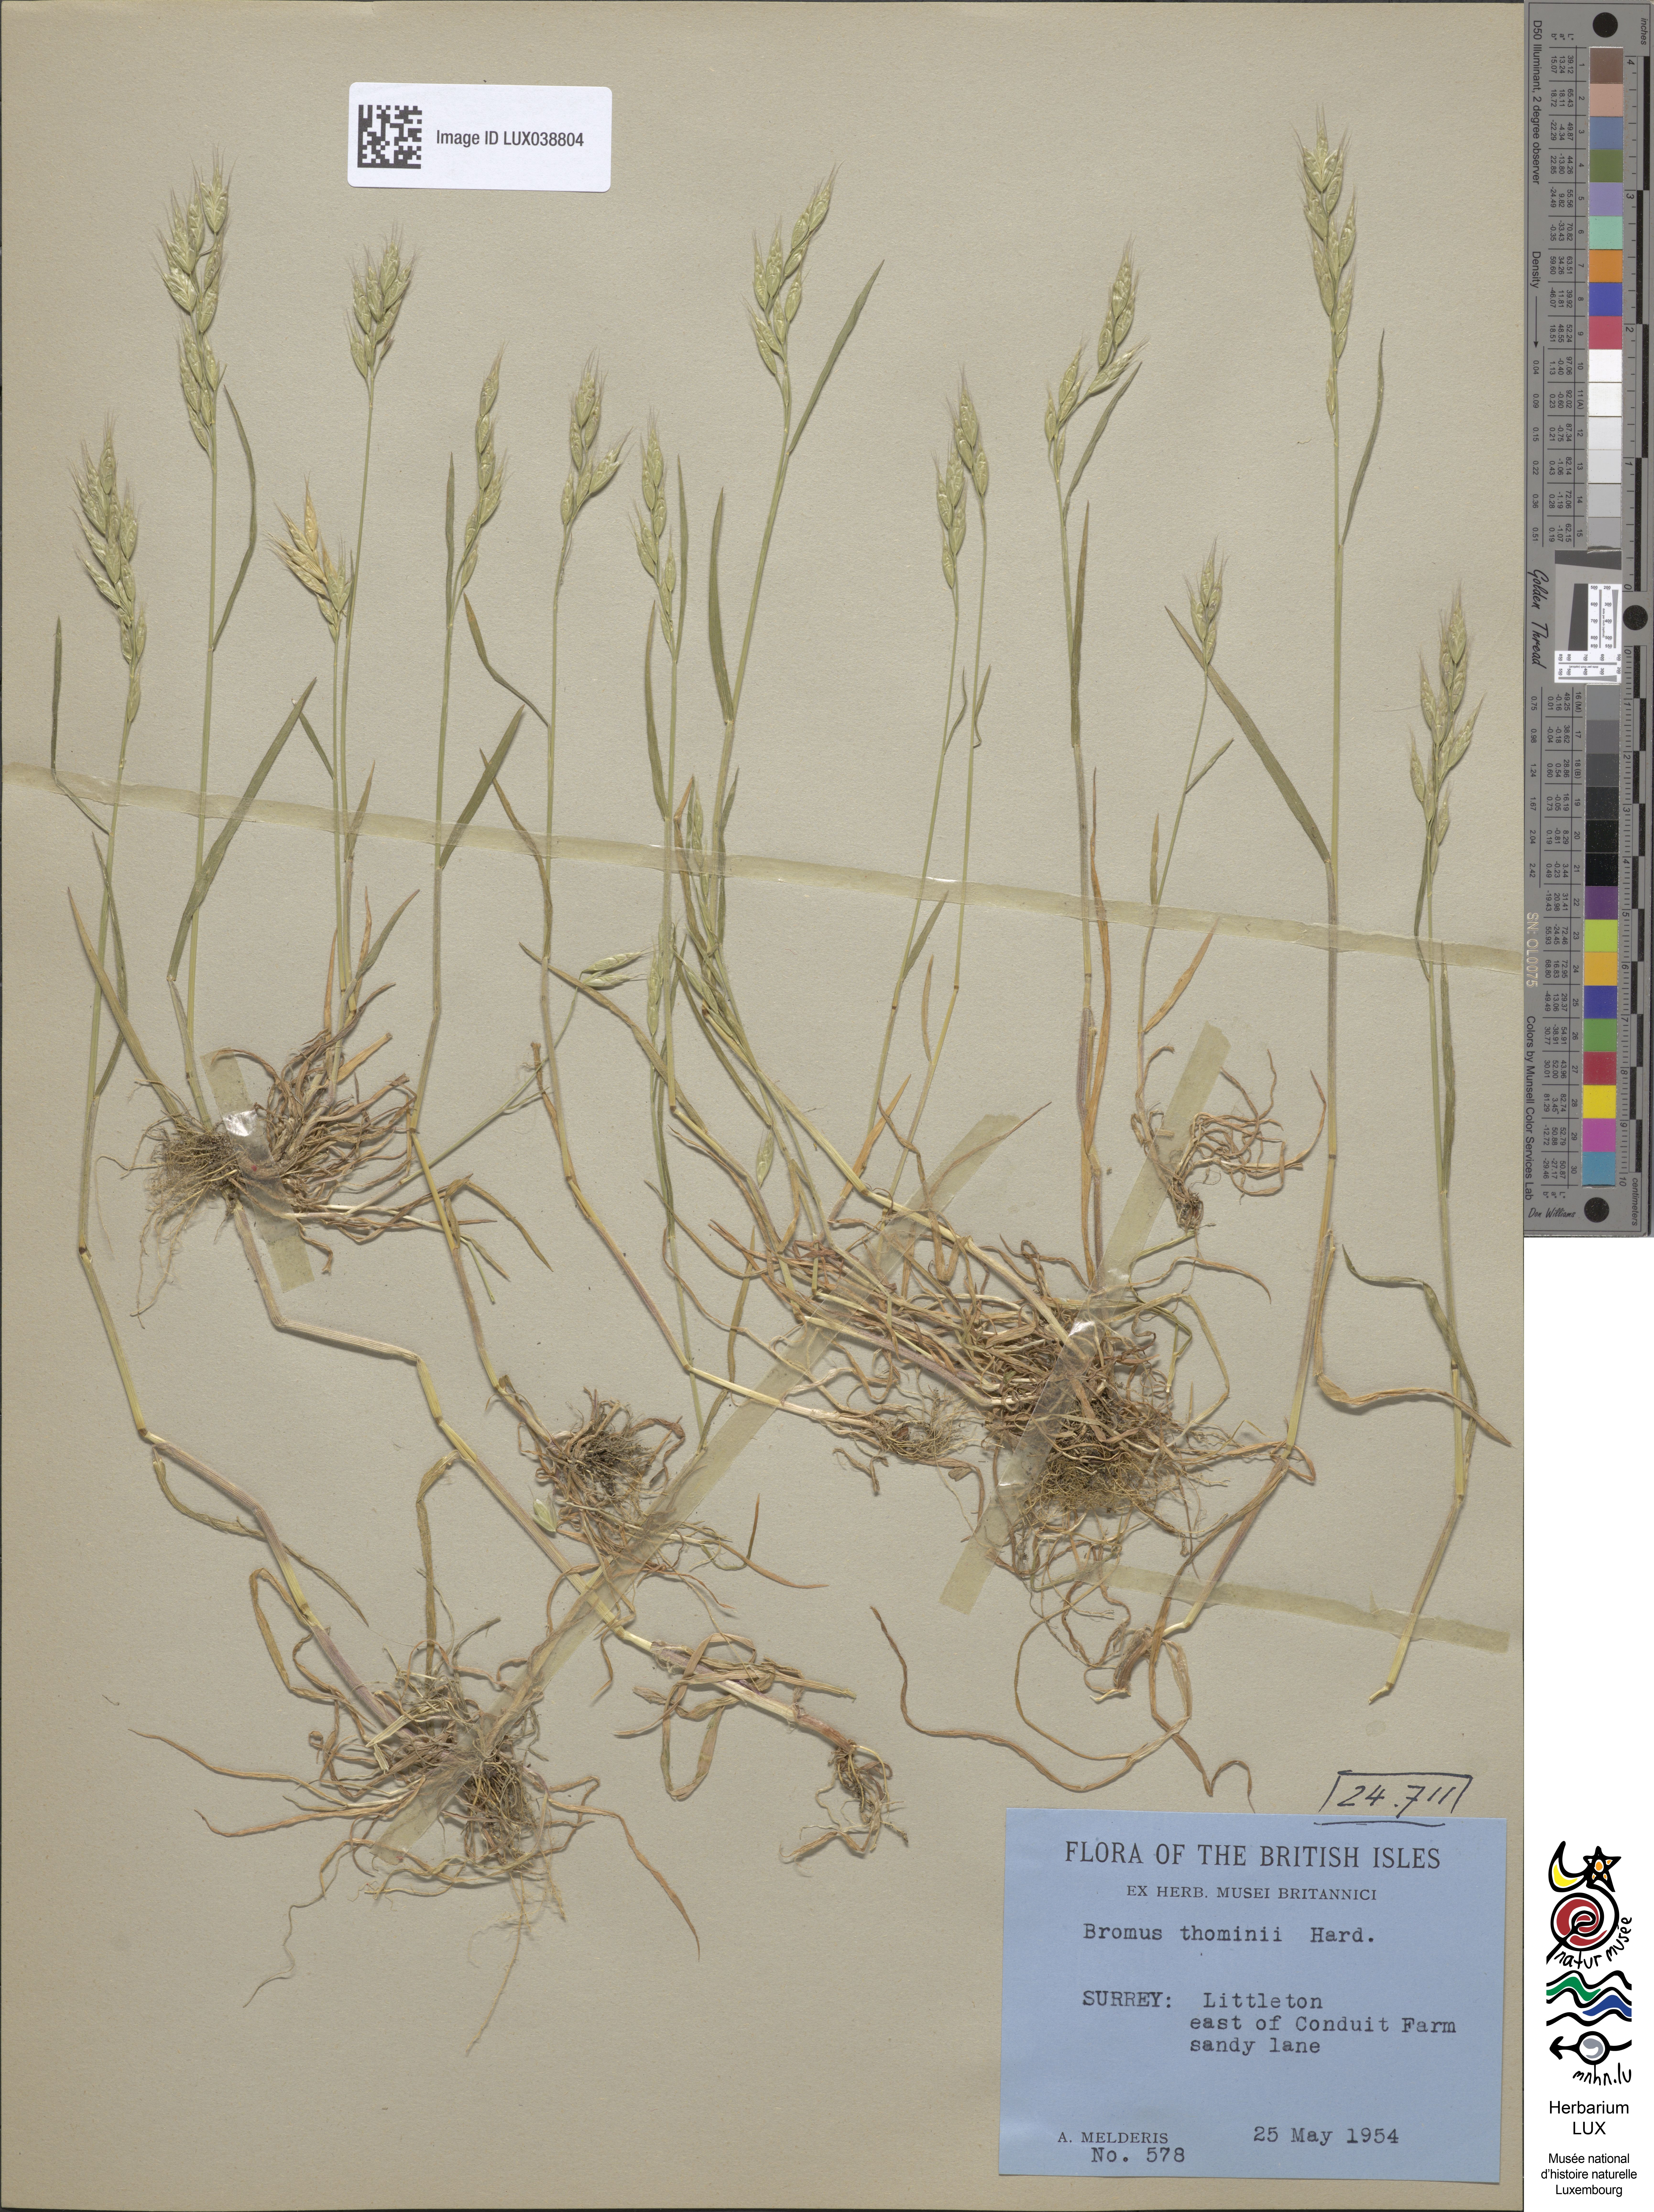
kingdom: Plantae
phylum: Tracheophyta
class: Liliopsida
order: Poales
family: Poaceae
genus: Bromus
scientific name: Bromus hordeaceus
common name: Soft brome
